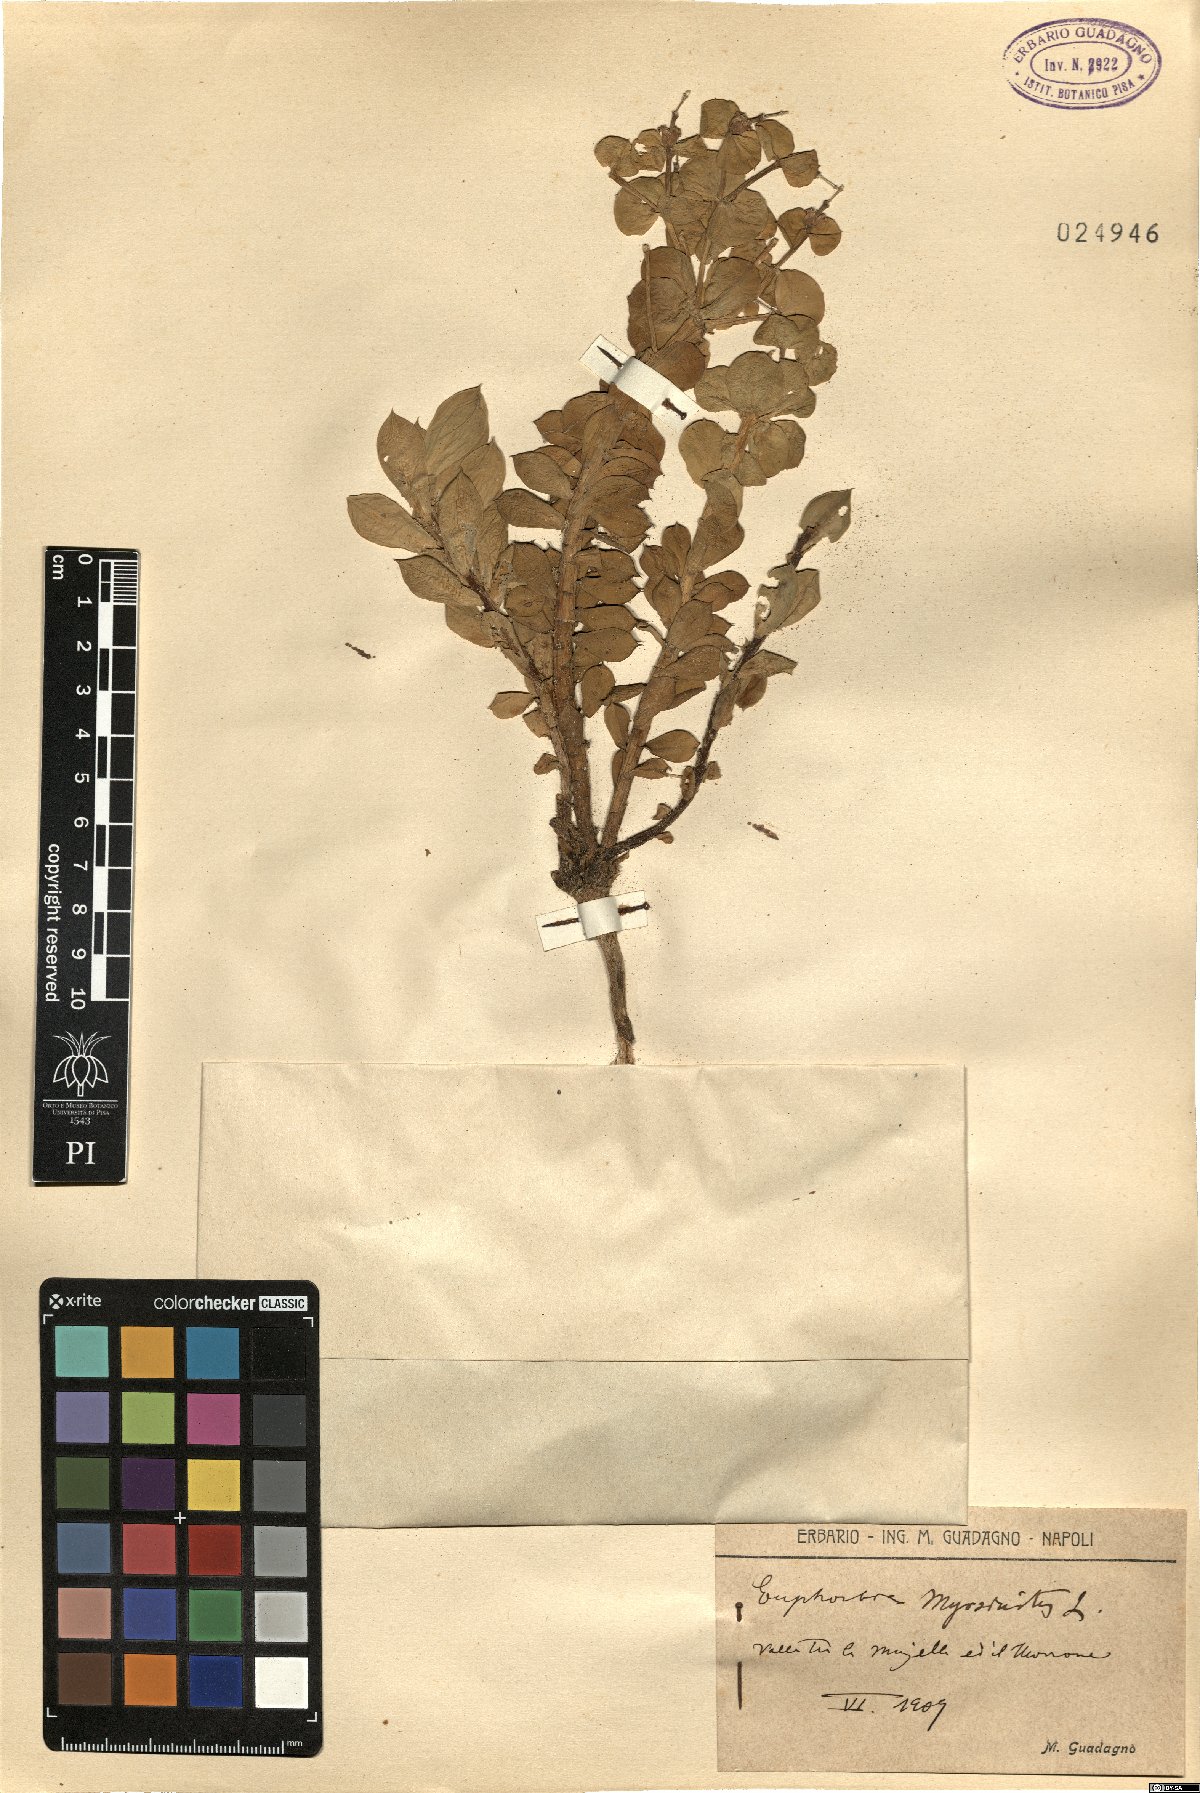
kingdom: Plantae
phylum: Tracheophyta
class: Magnoliopsida
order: Malpighiales
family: Euphorbiaceae
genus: Euphorbia
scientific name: Euphorbia myrsinites
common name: Myrtle spurge
